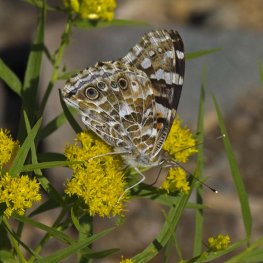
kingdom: Animalia
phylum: Arthropoda
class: Insecta
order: Lepidoptera
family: Nymphalidae
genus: Vanessa
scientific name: Vanessa cardui
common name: Painted Lady
